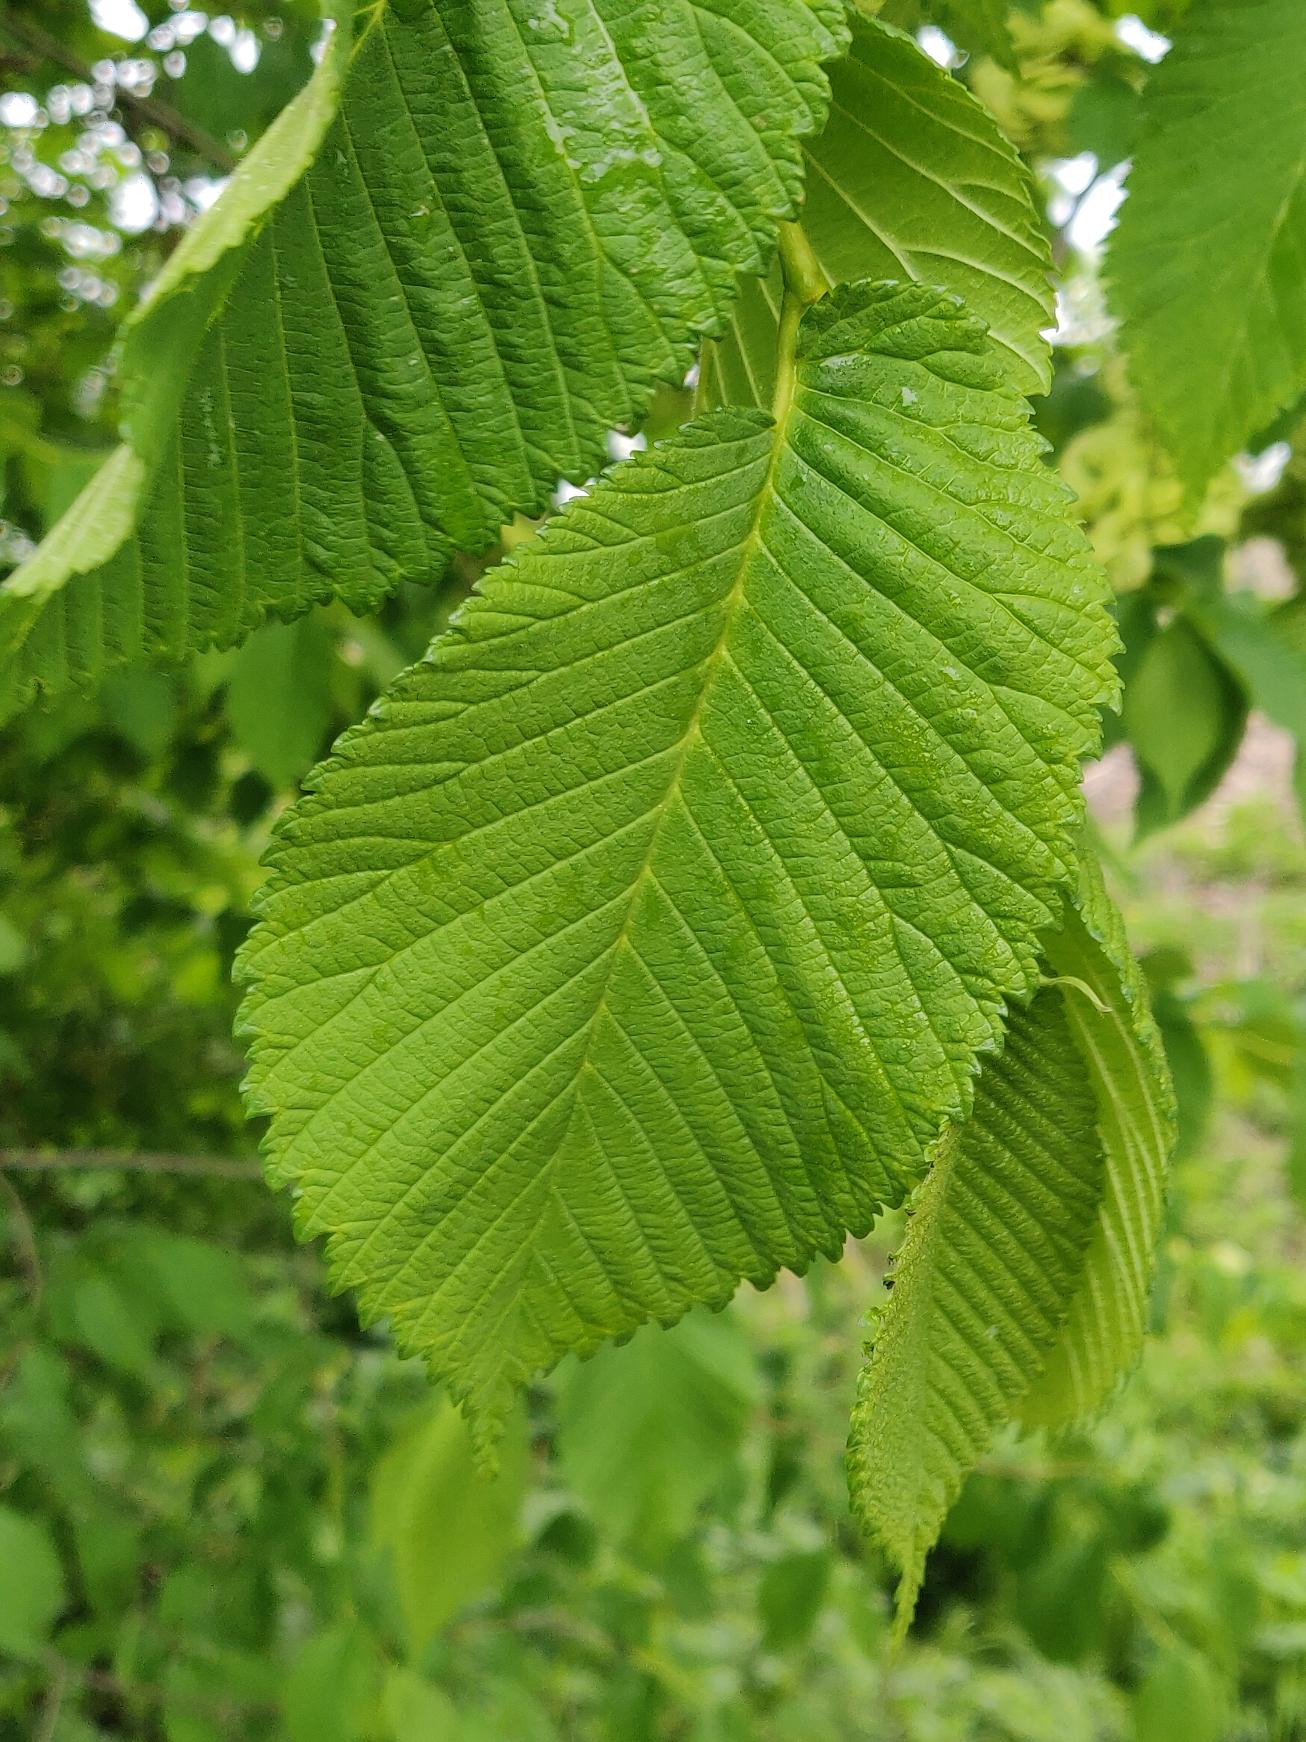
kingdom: Plantae
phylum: Tracheophyta
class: Magnoliopsida
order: Rosales
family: Ulmaceae
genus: Ulmus
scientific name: Ulmus hollandica
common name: Hollandsk elm
